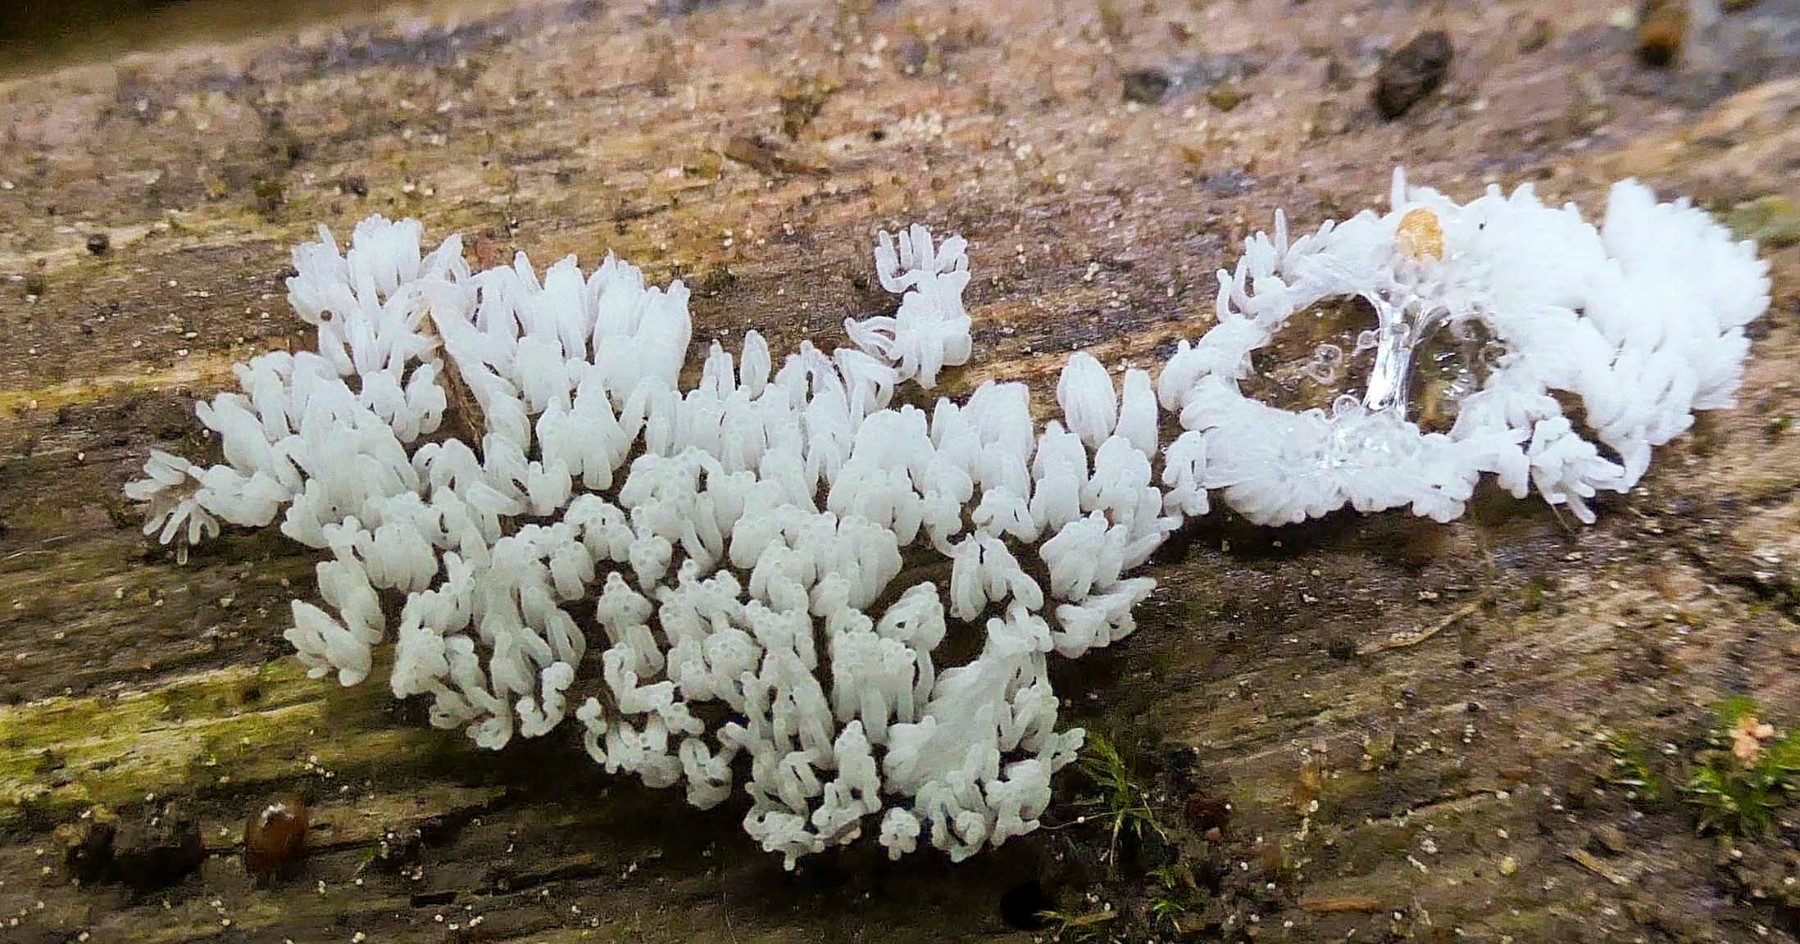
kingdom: Protozoa
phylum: Mycetozoa
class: Protosteliomycetes
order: Ceratiomyxales
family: Ceratiomyxaceae
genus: Ceratiomyxa
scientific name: Ceratiomyxa fruticulosa
